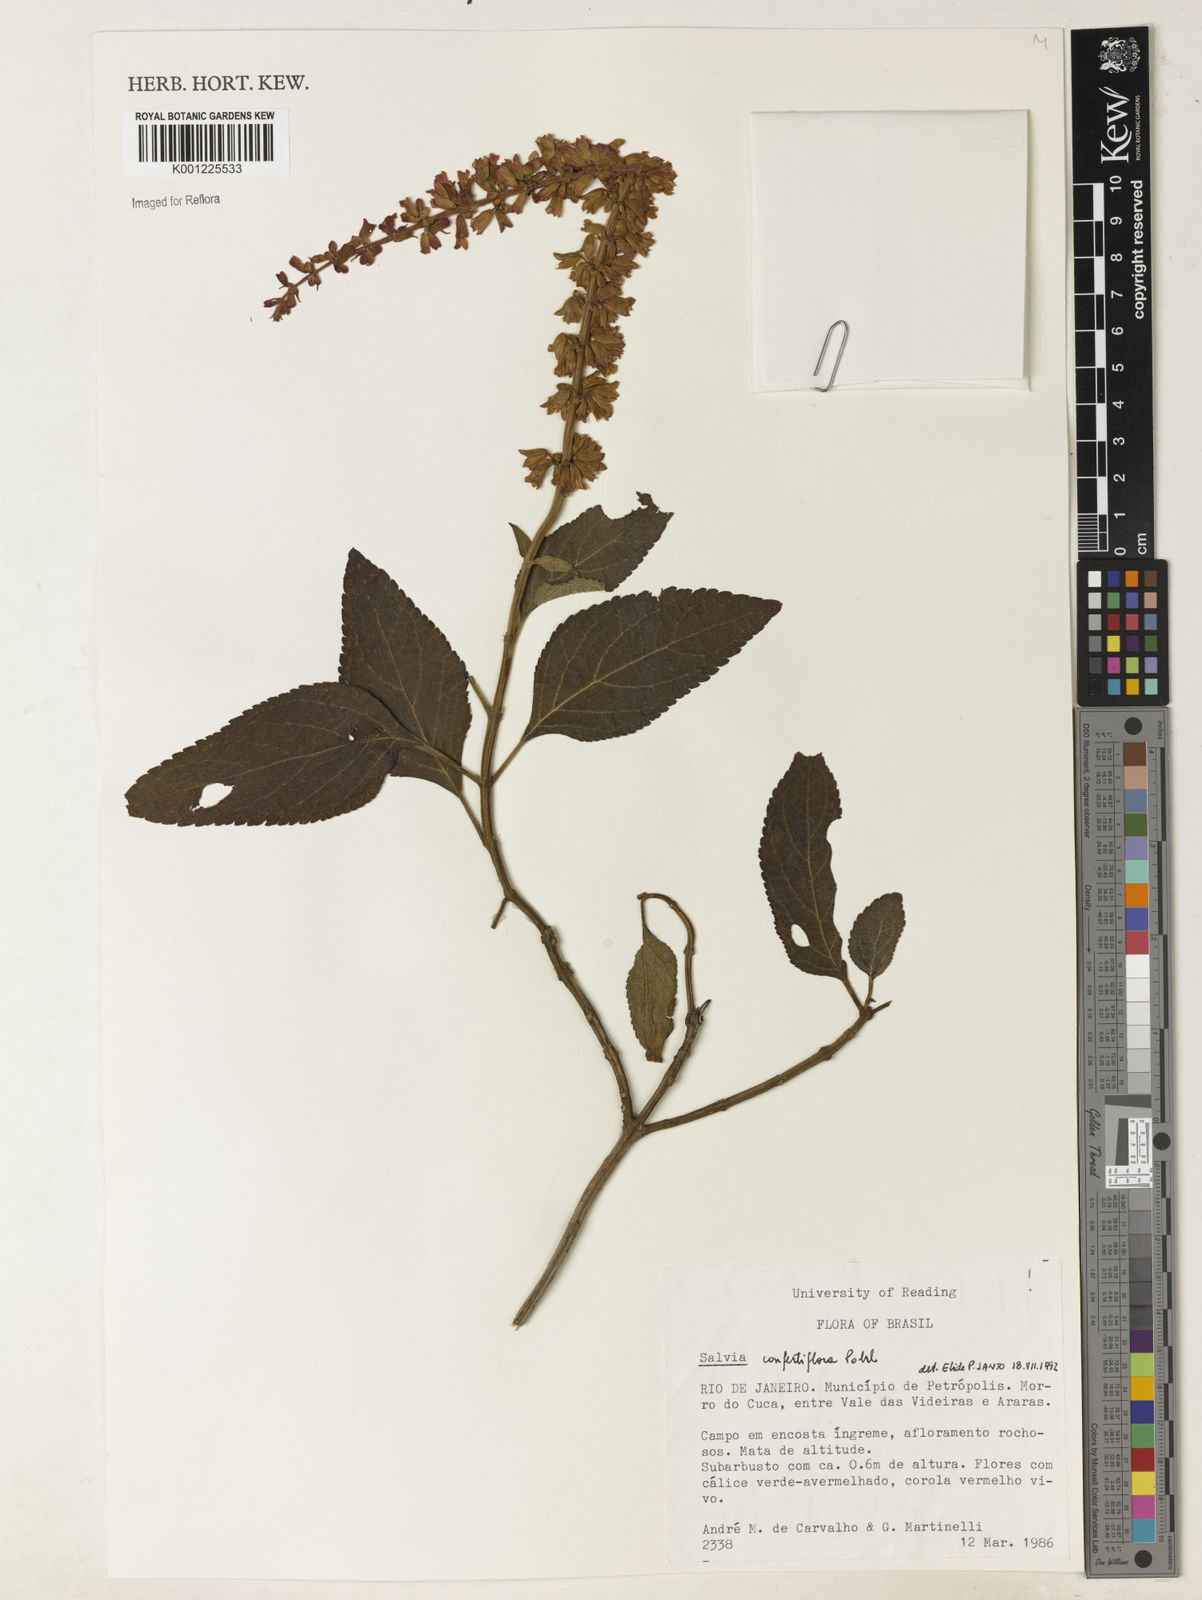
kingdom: Plantae
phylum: Tracheophyta
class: Magnoliopsida
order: Lamiales
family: Lamiaceae
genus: Salvia
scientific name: Salvia confertiflora
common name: Sabra-spike sage
